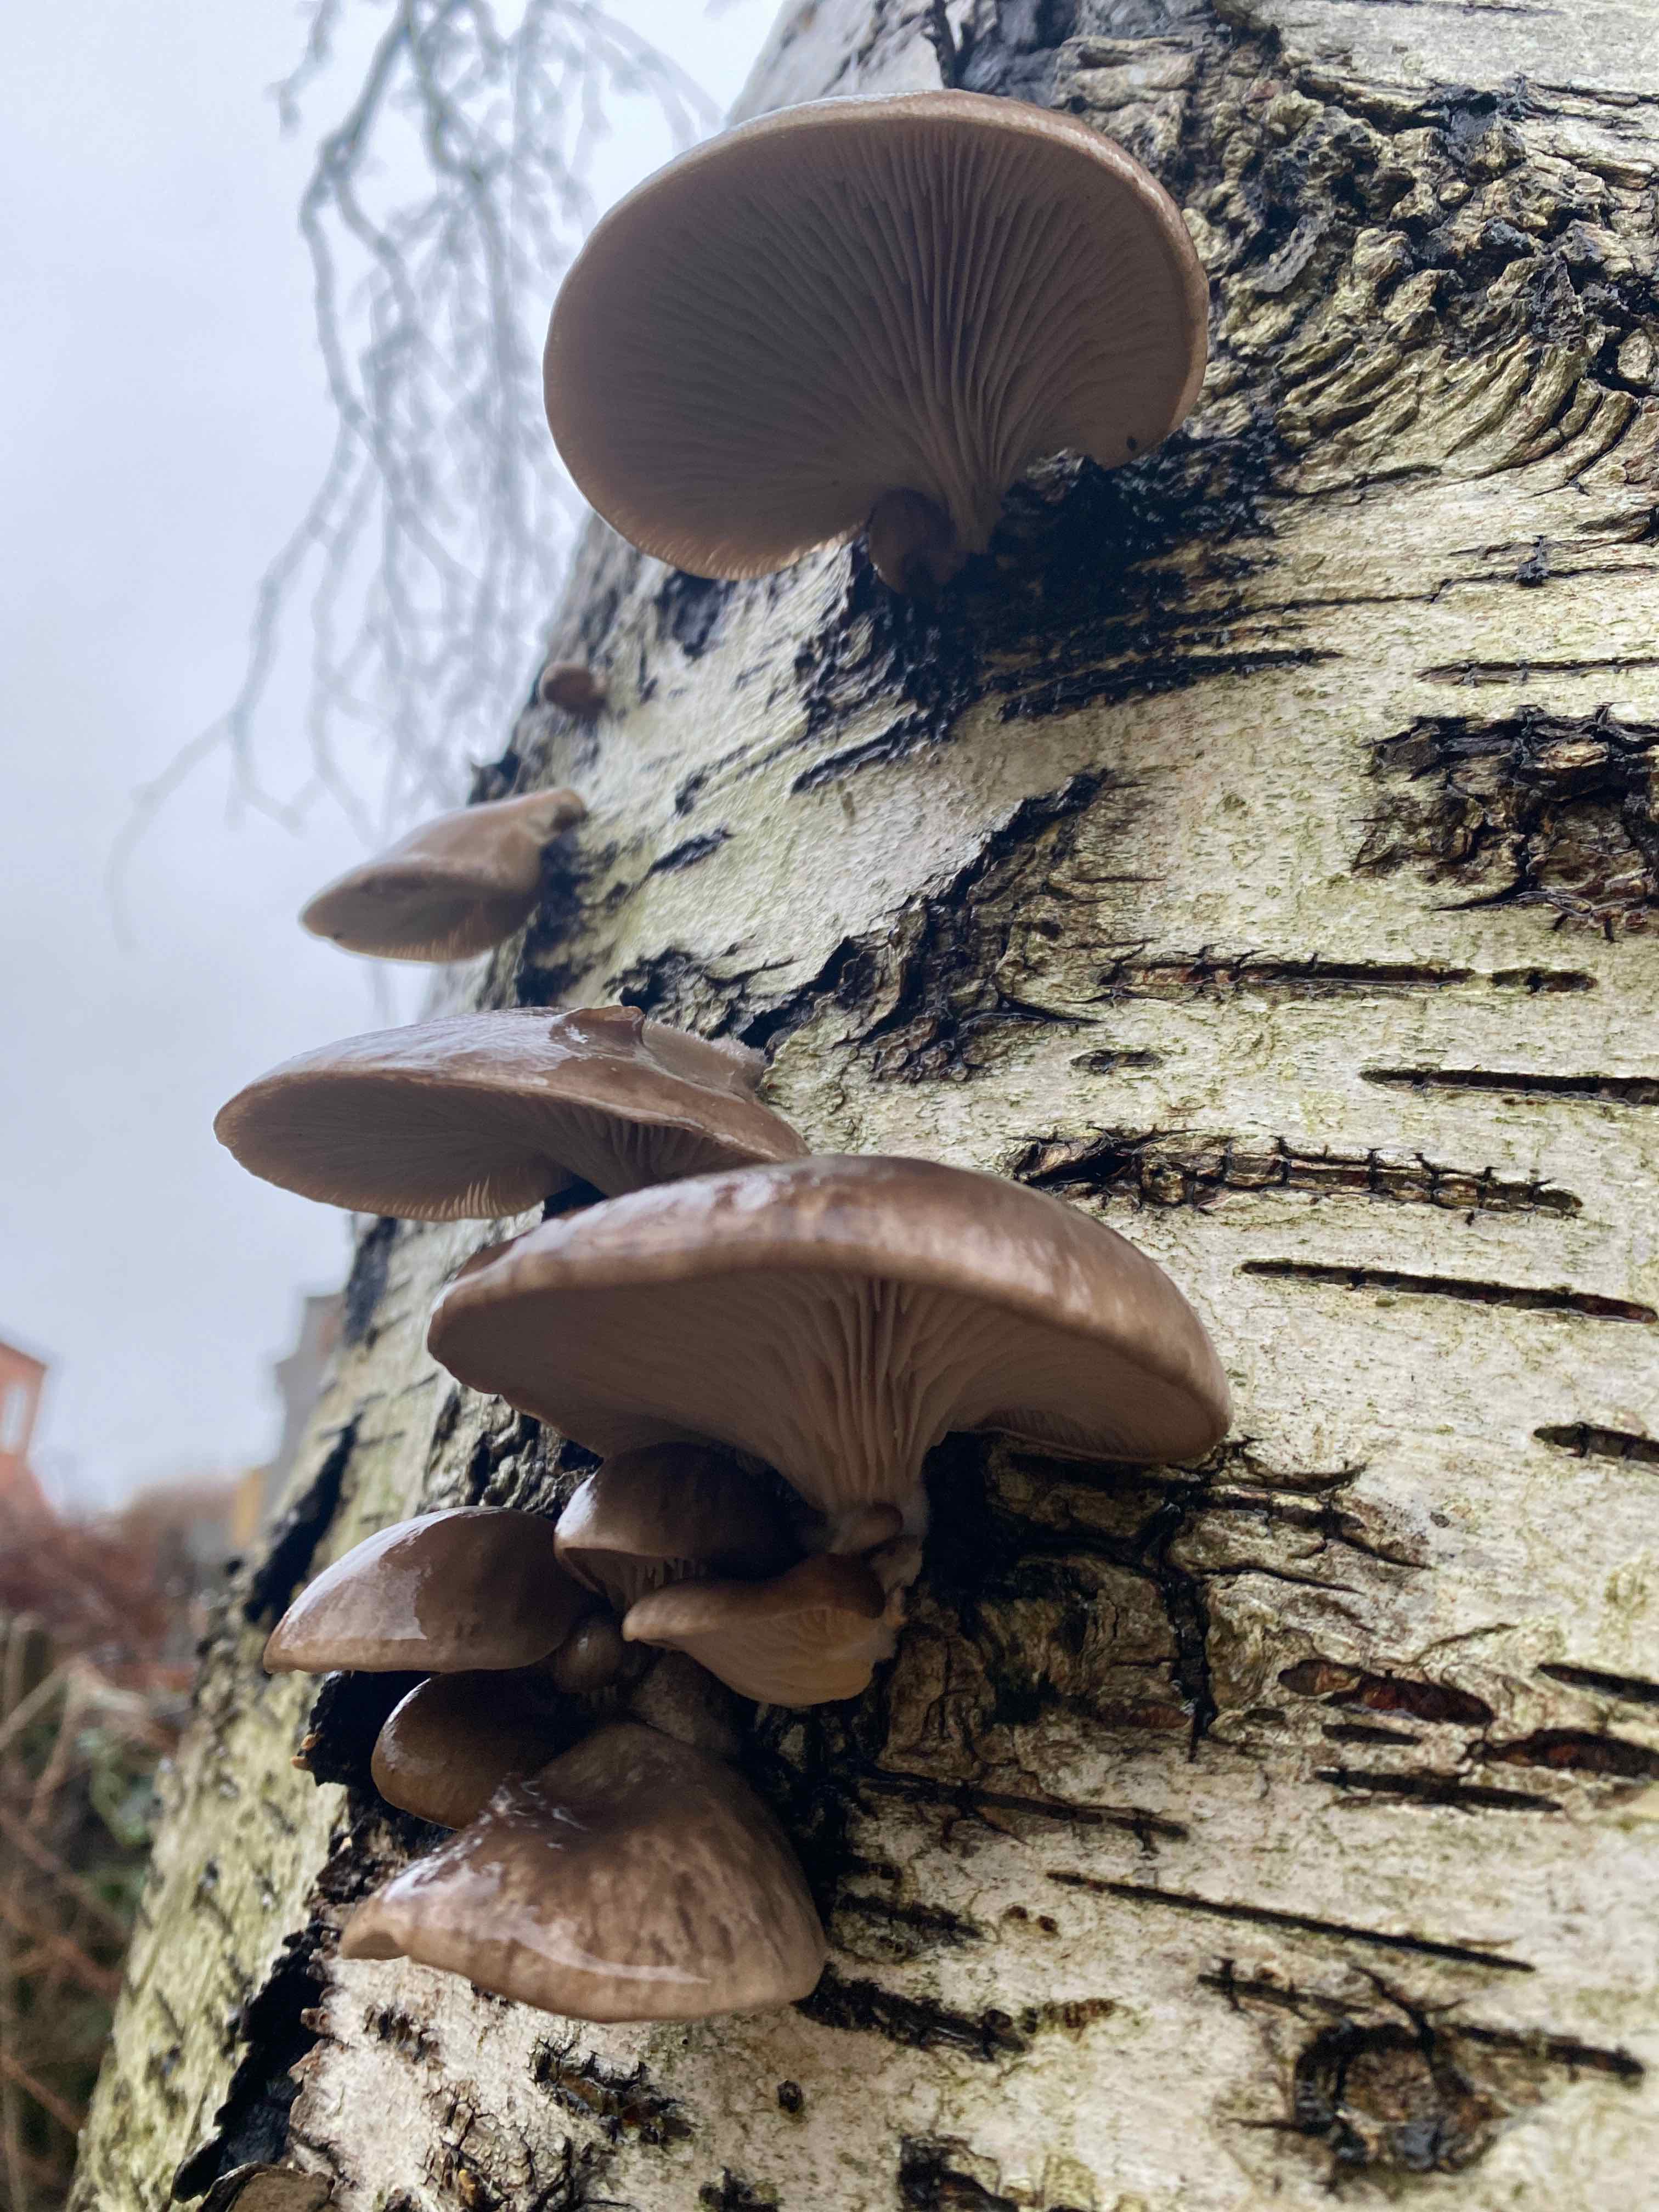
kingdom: Fungi
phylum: Basidiomycota
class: Agaricomycetes
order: Agaricales
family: Pleurotaceae
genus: Pleurotus
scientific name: Pleurotus ostreatus
